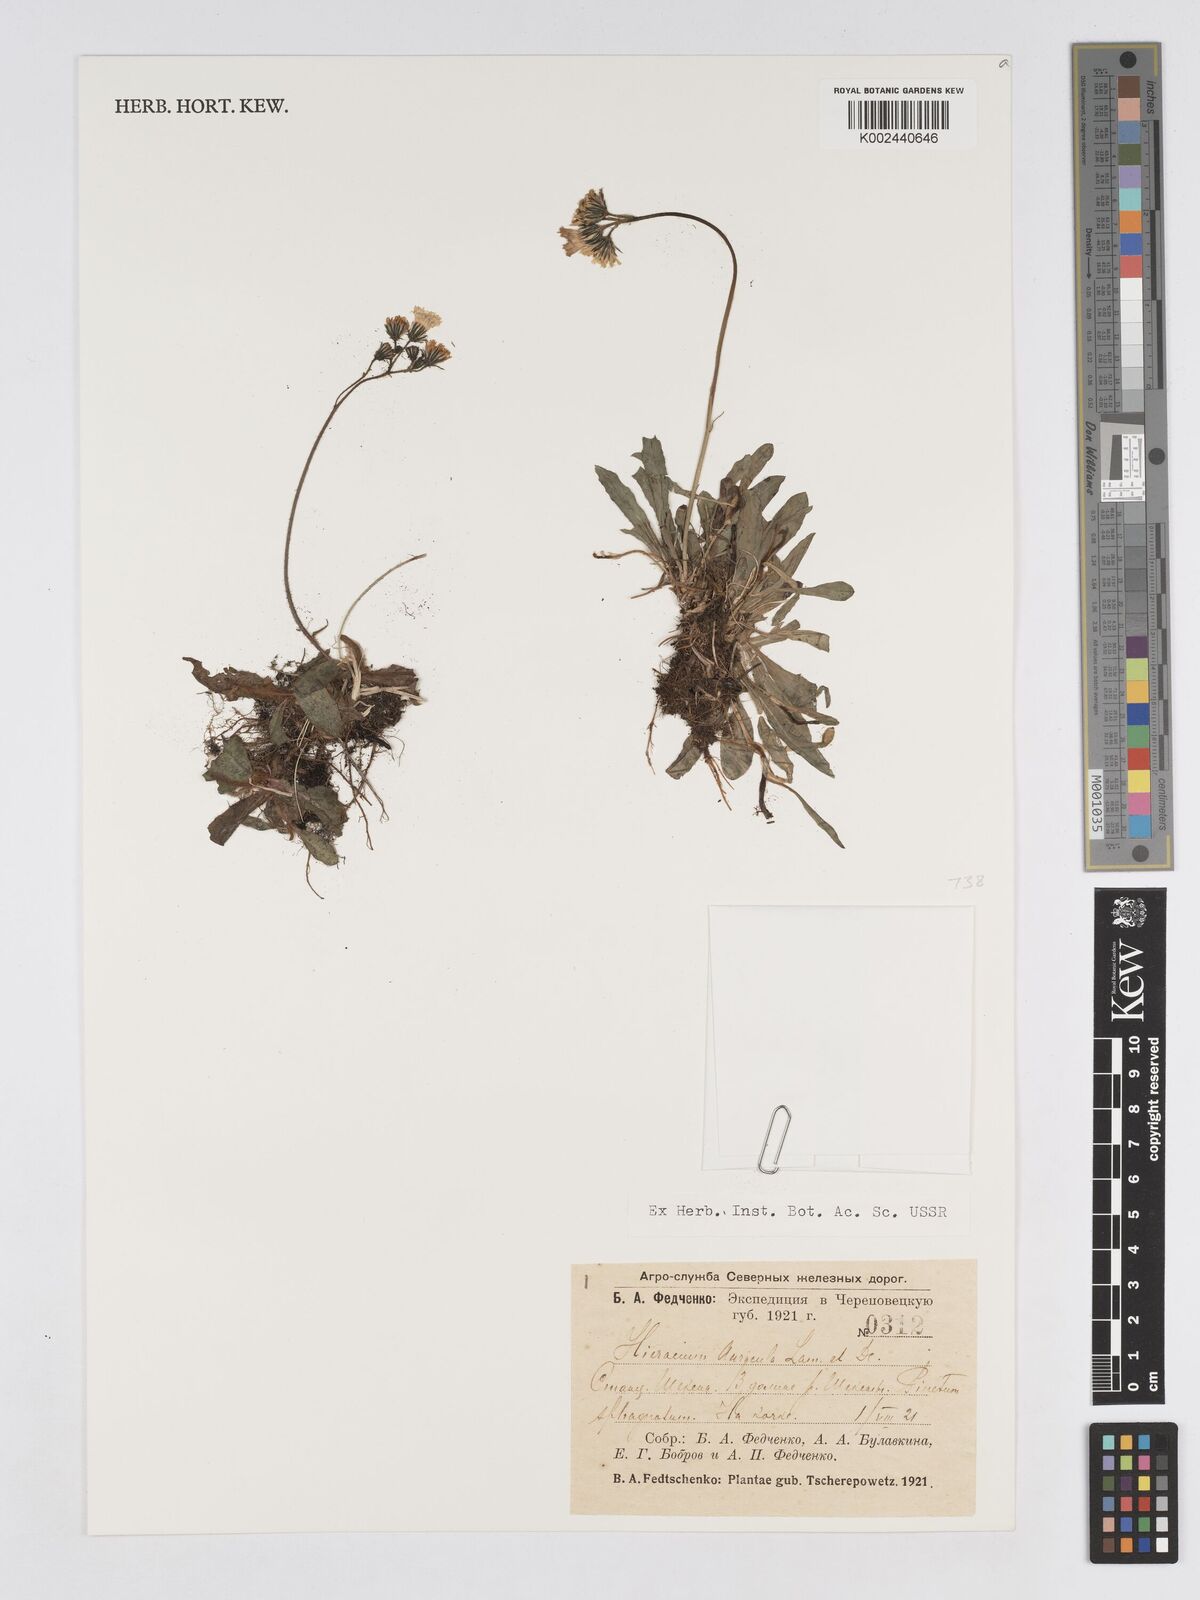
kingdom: Plantae
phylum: Tracheophyta
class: Magnoliopsida
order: Asterales
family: Asteraceae
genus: Pilosella
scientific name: Pilosella floribunda
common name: Glaucous hawkweed
